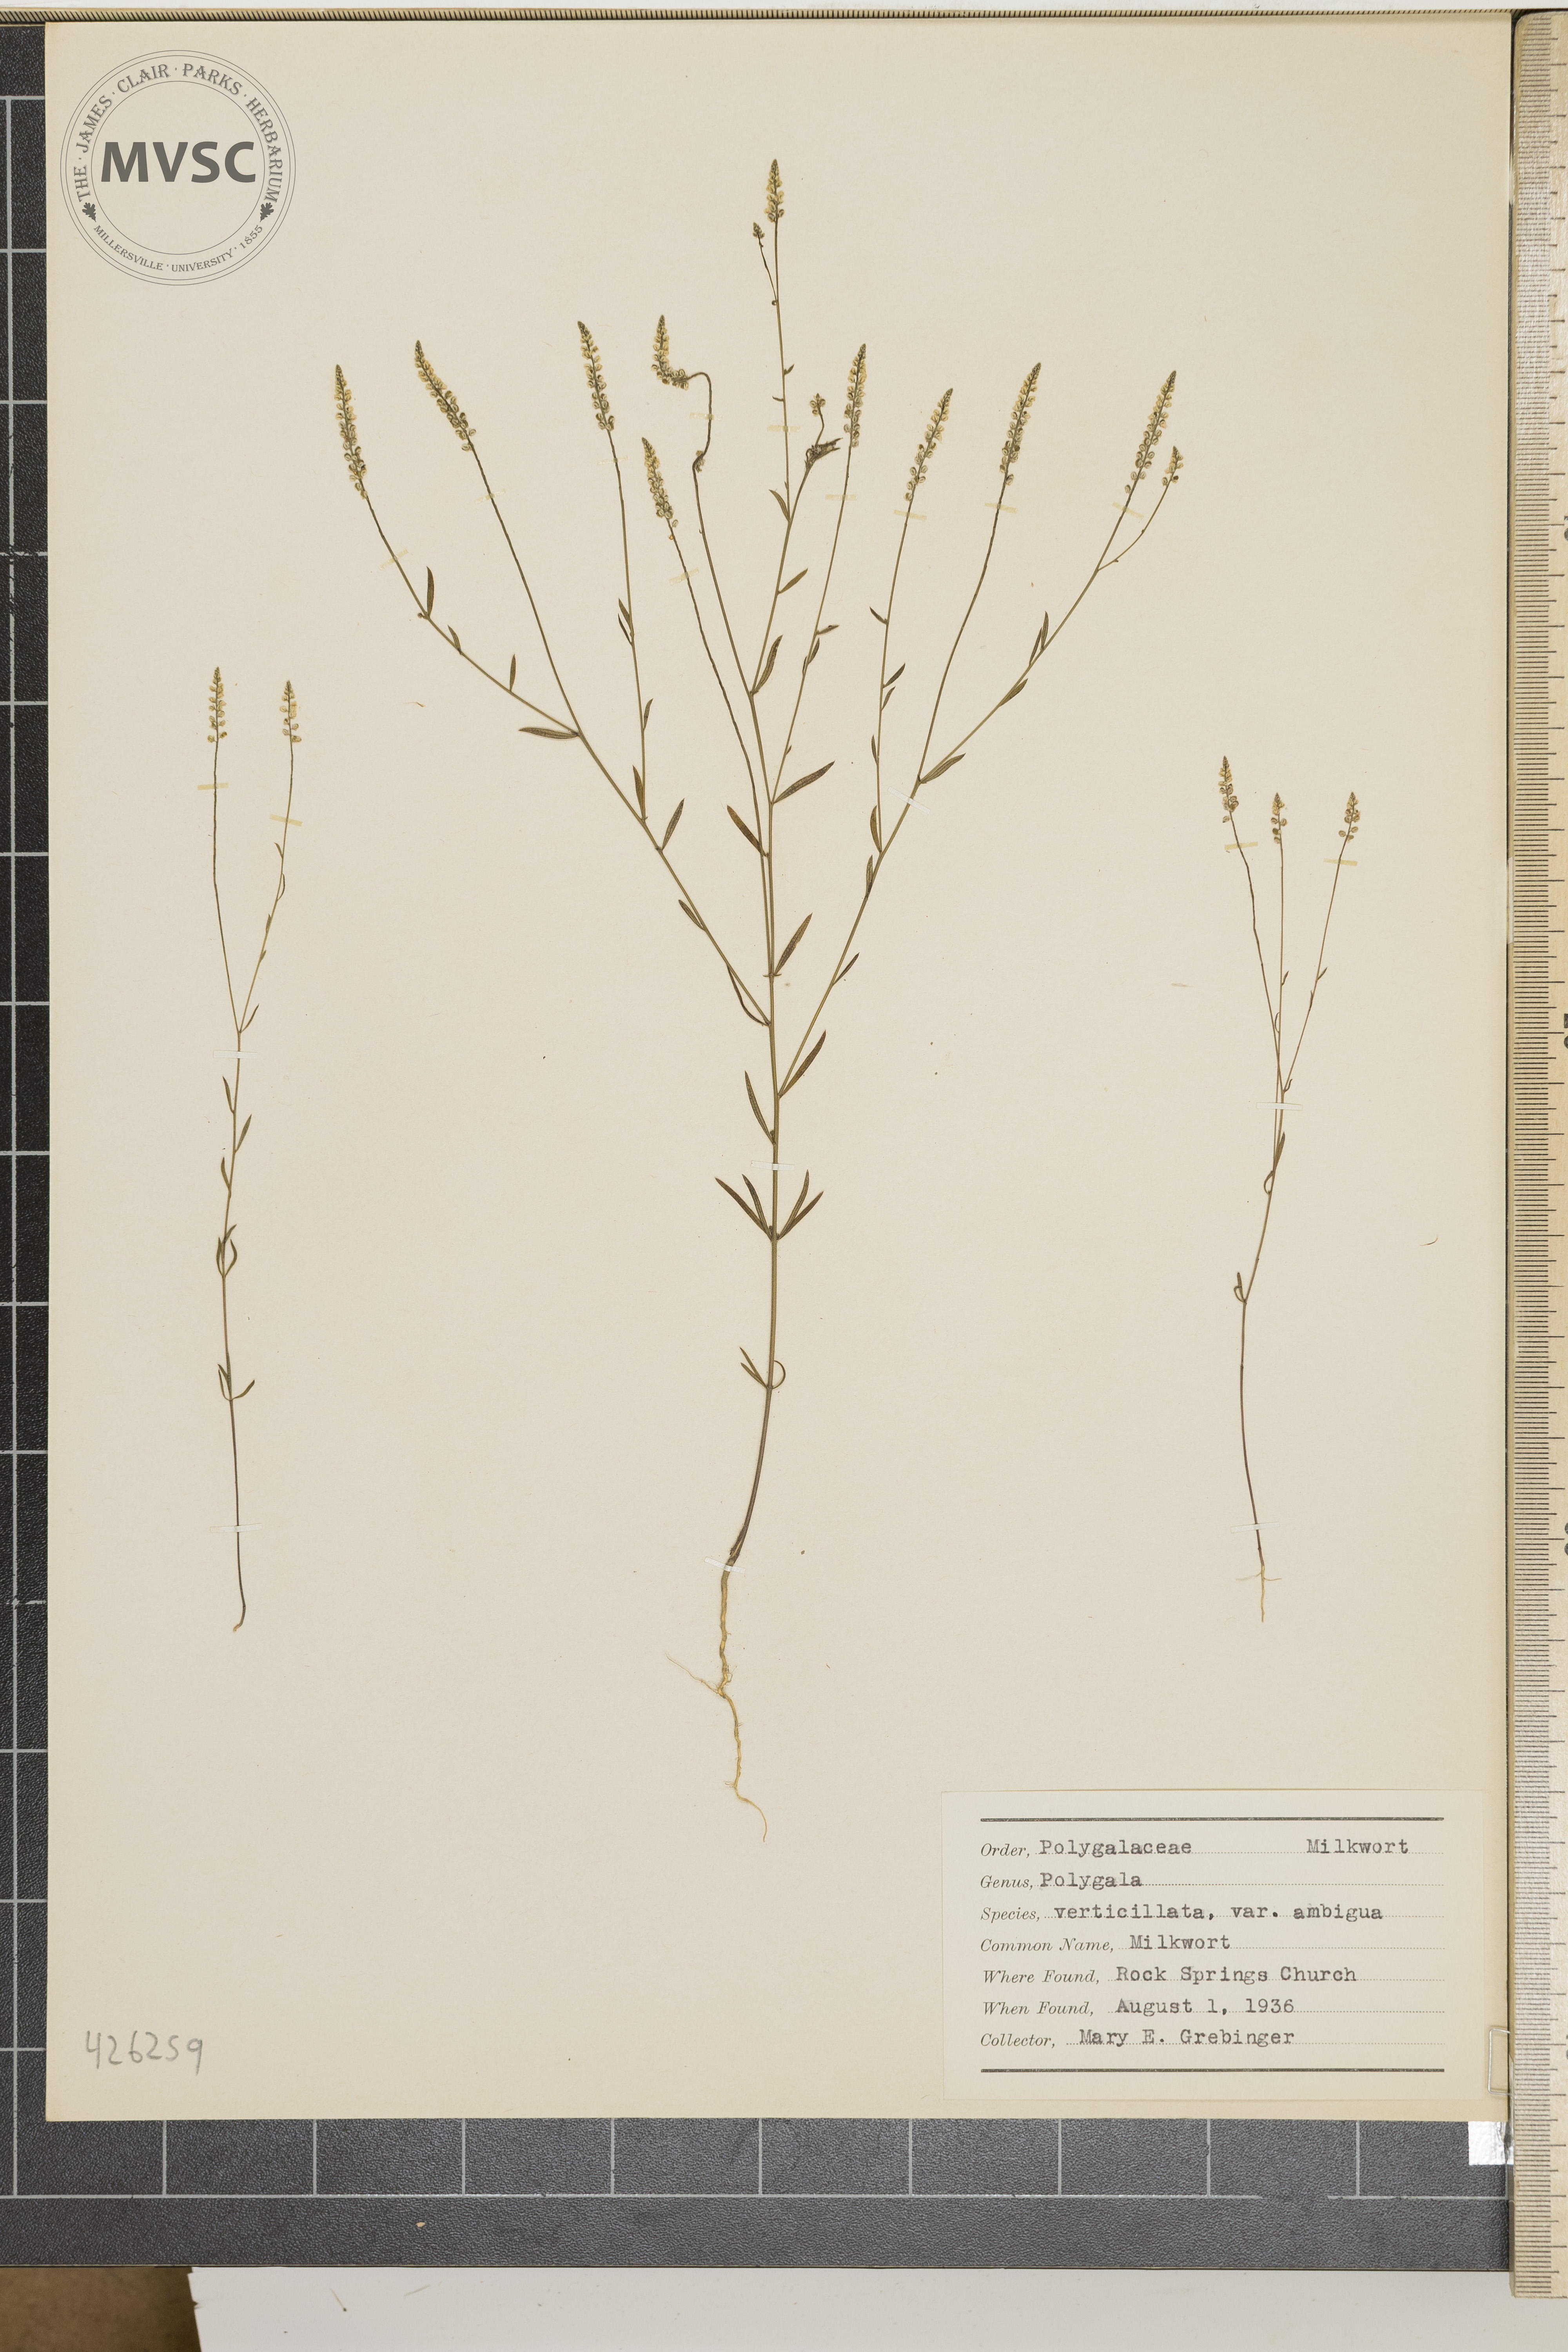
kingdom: Plantae
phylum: Tracheophyta
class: Magnoliopsida
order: Fabales
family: Polygalaceae
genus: Polygala
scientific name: Polygala verticillata
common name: Milkwort
